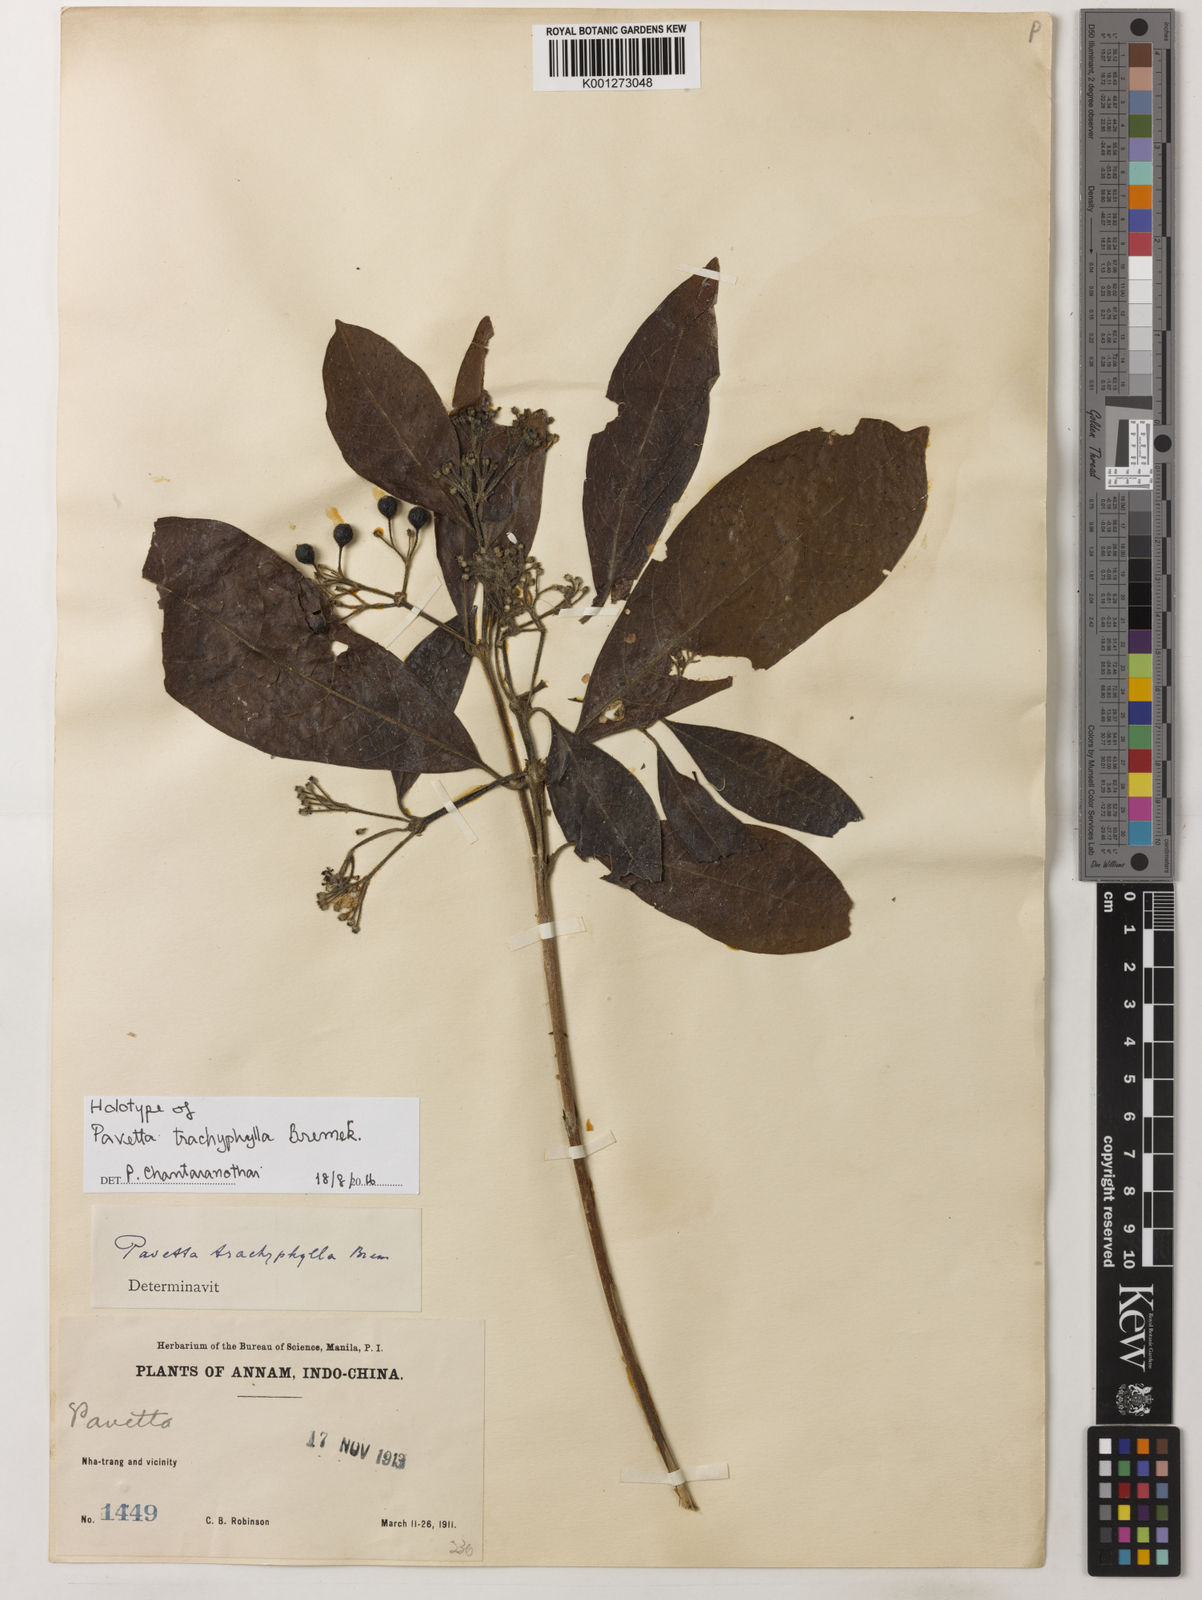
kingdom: Plantae
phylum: Tracheophyta
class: Magnoliopsida
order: Gentianales
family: Rubiaceae
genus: Pavetta
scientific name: Pavetta trachyphylla
